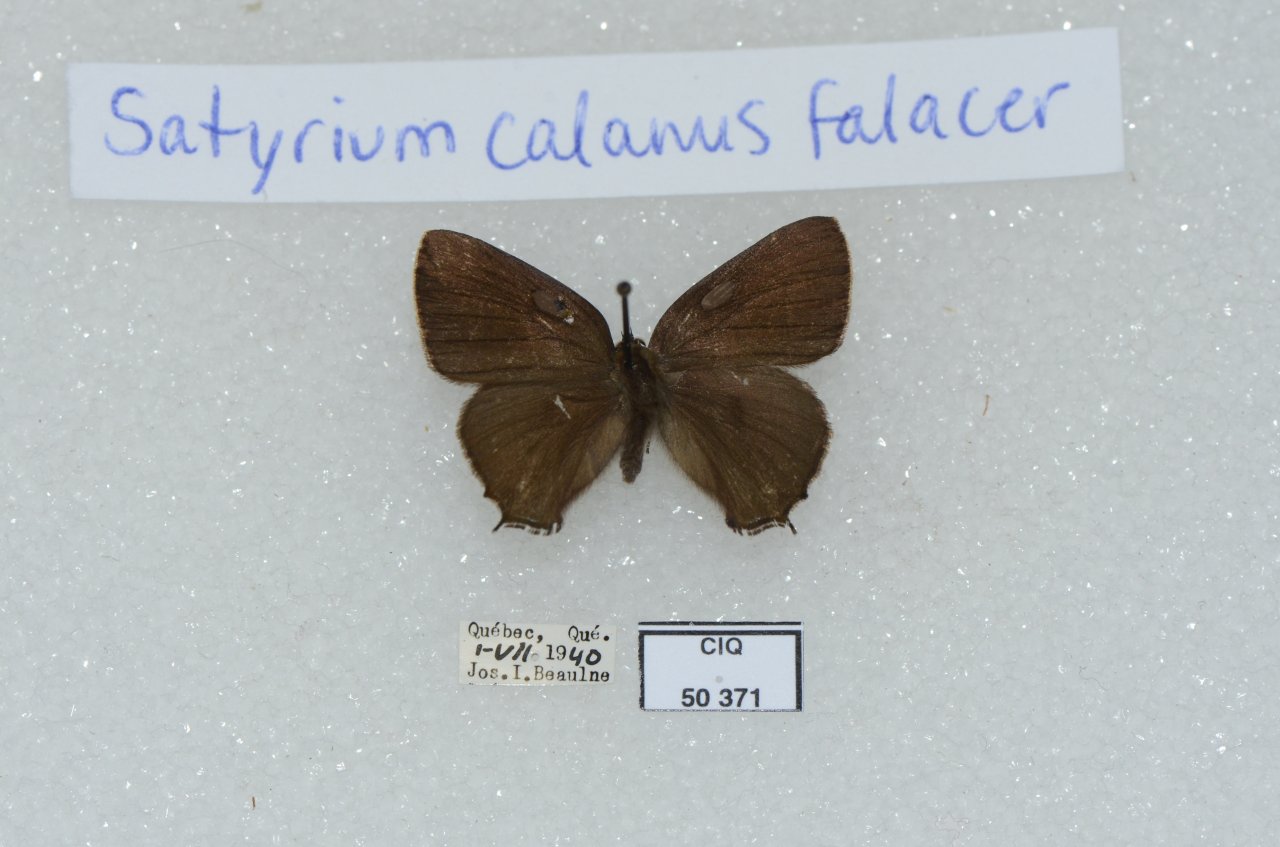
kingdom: Animalia
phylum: Arthropoda
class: Insecta
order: Lepidoptera
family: Lycaenidae
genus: Satyrium
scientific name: Satyrium calanus
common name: Banded Hairstreak
